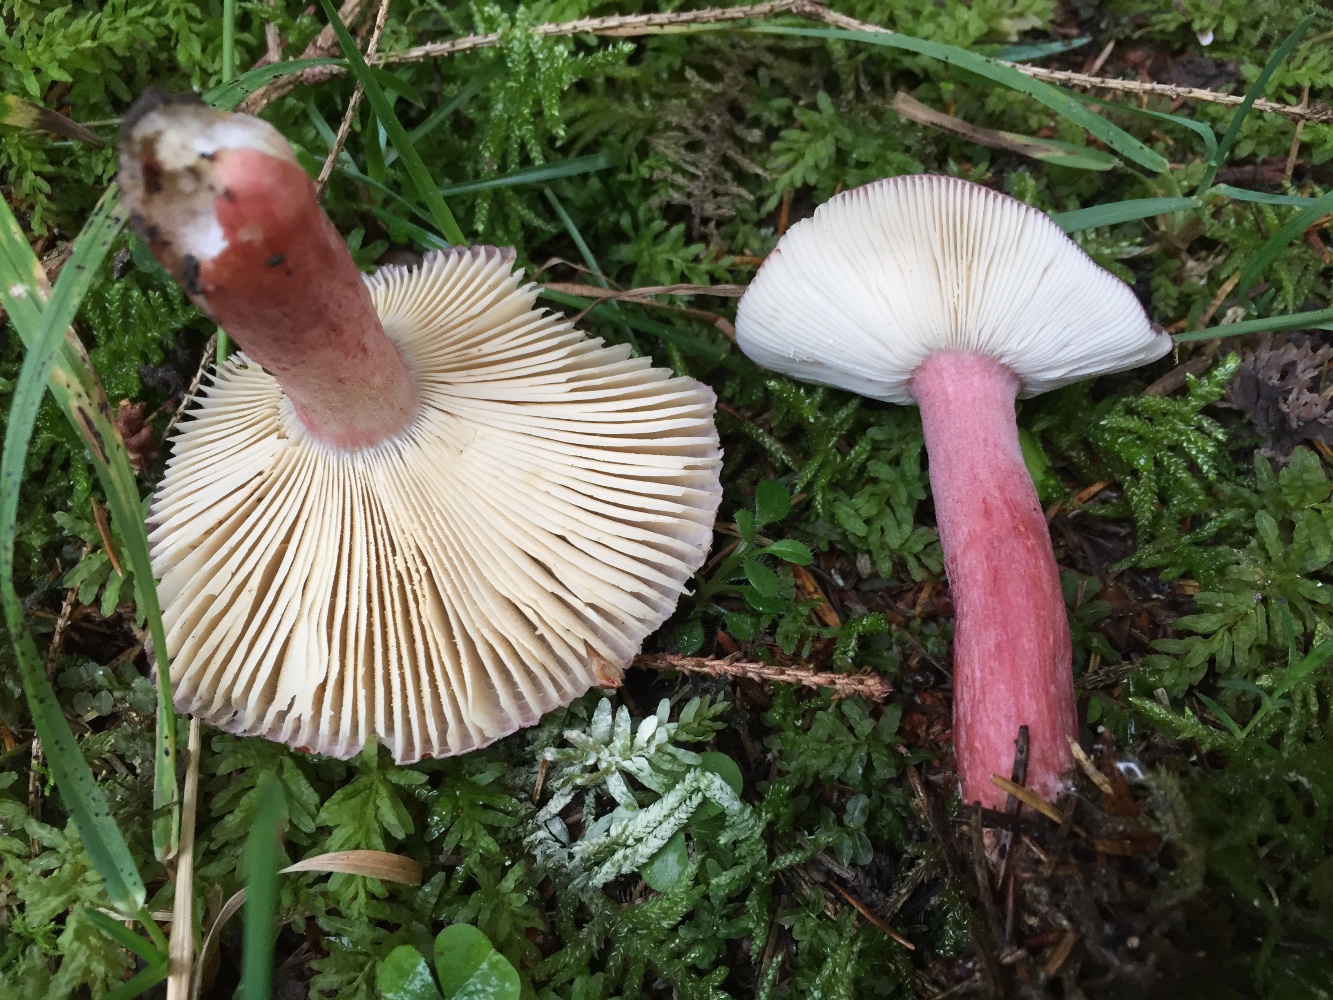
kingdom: Fungi
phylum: Basidiomycota
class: Agaricomycetes
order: Russulales
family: Russulaceae
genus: Russula
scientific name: Russula queletii
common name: Quélets skørhat
